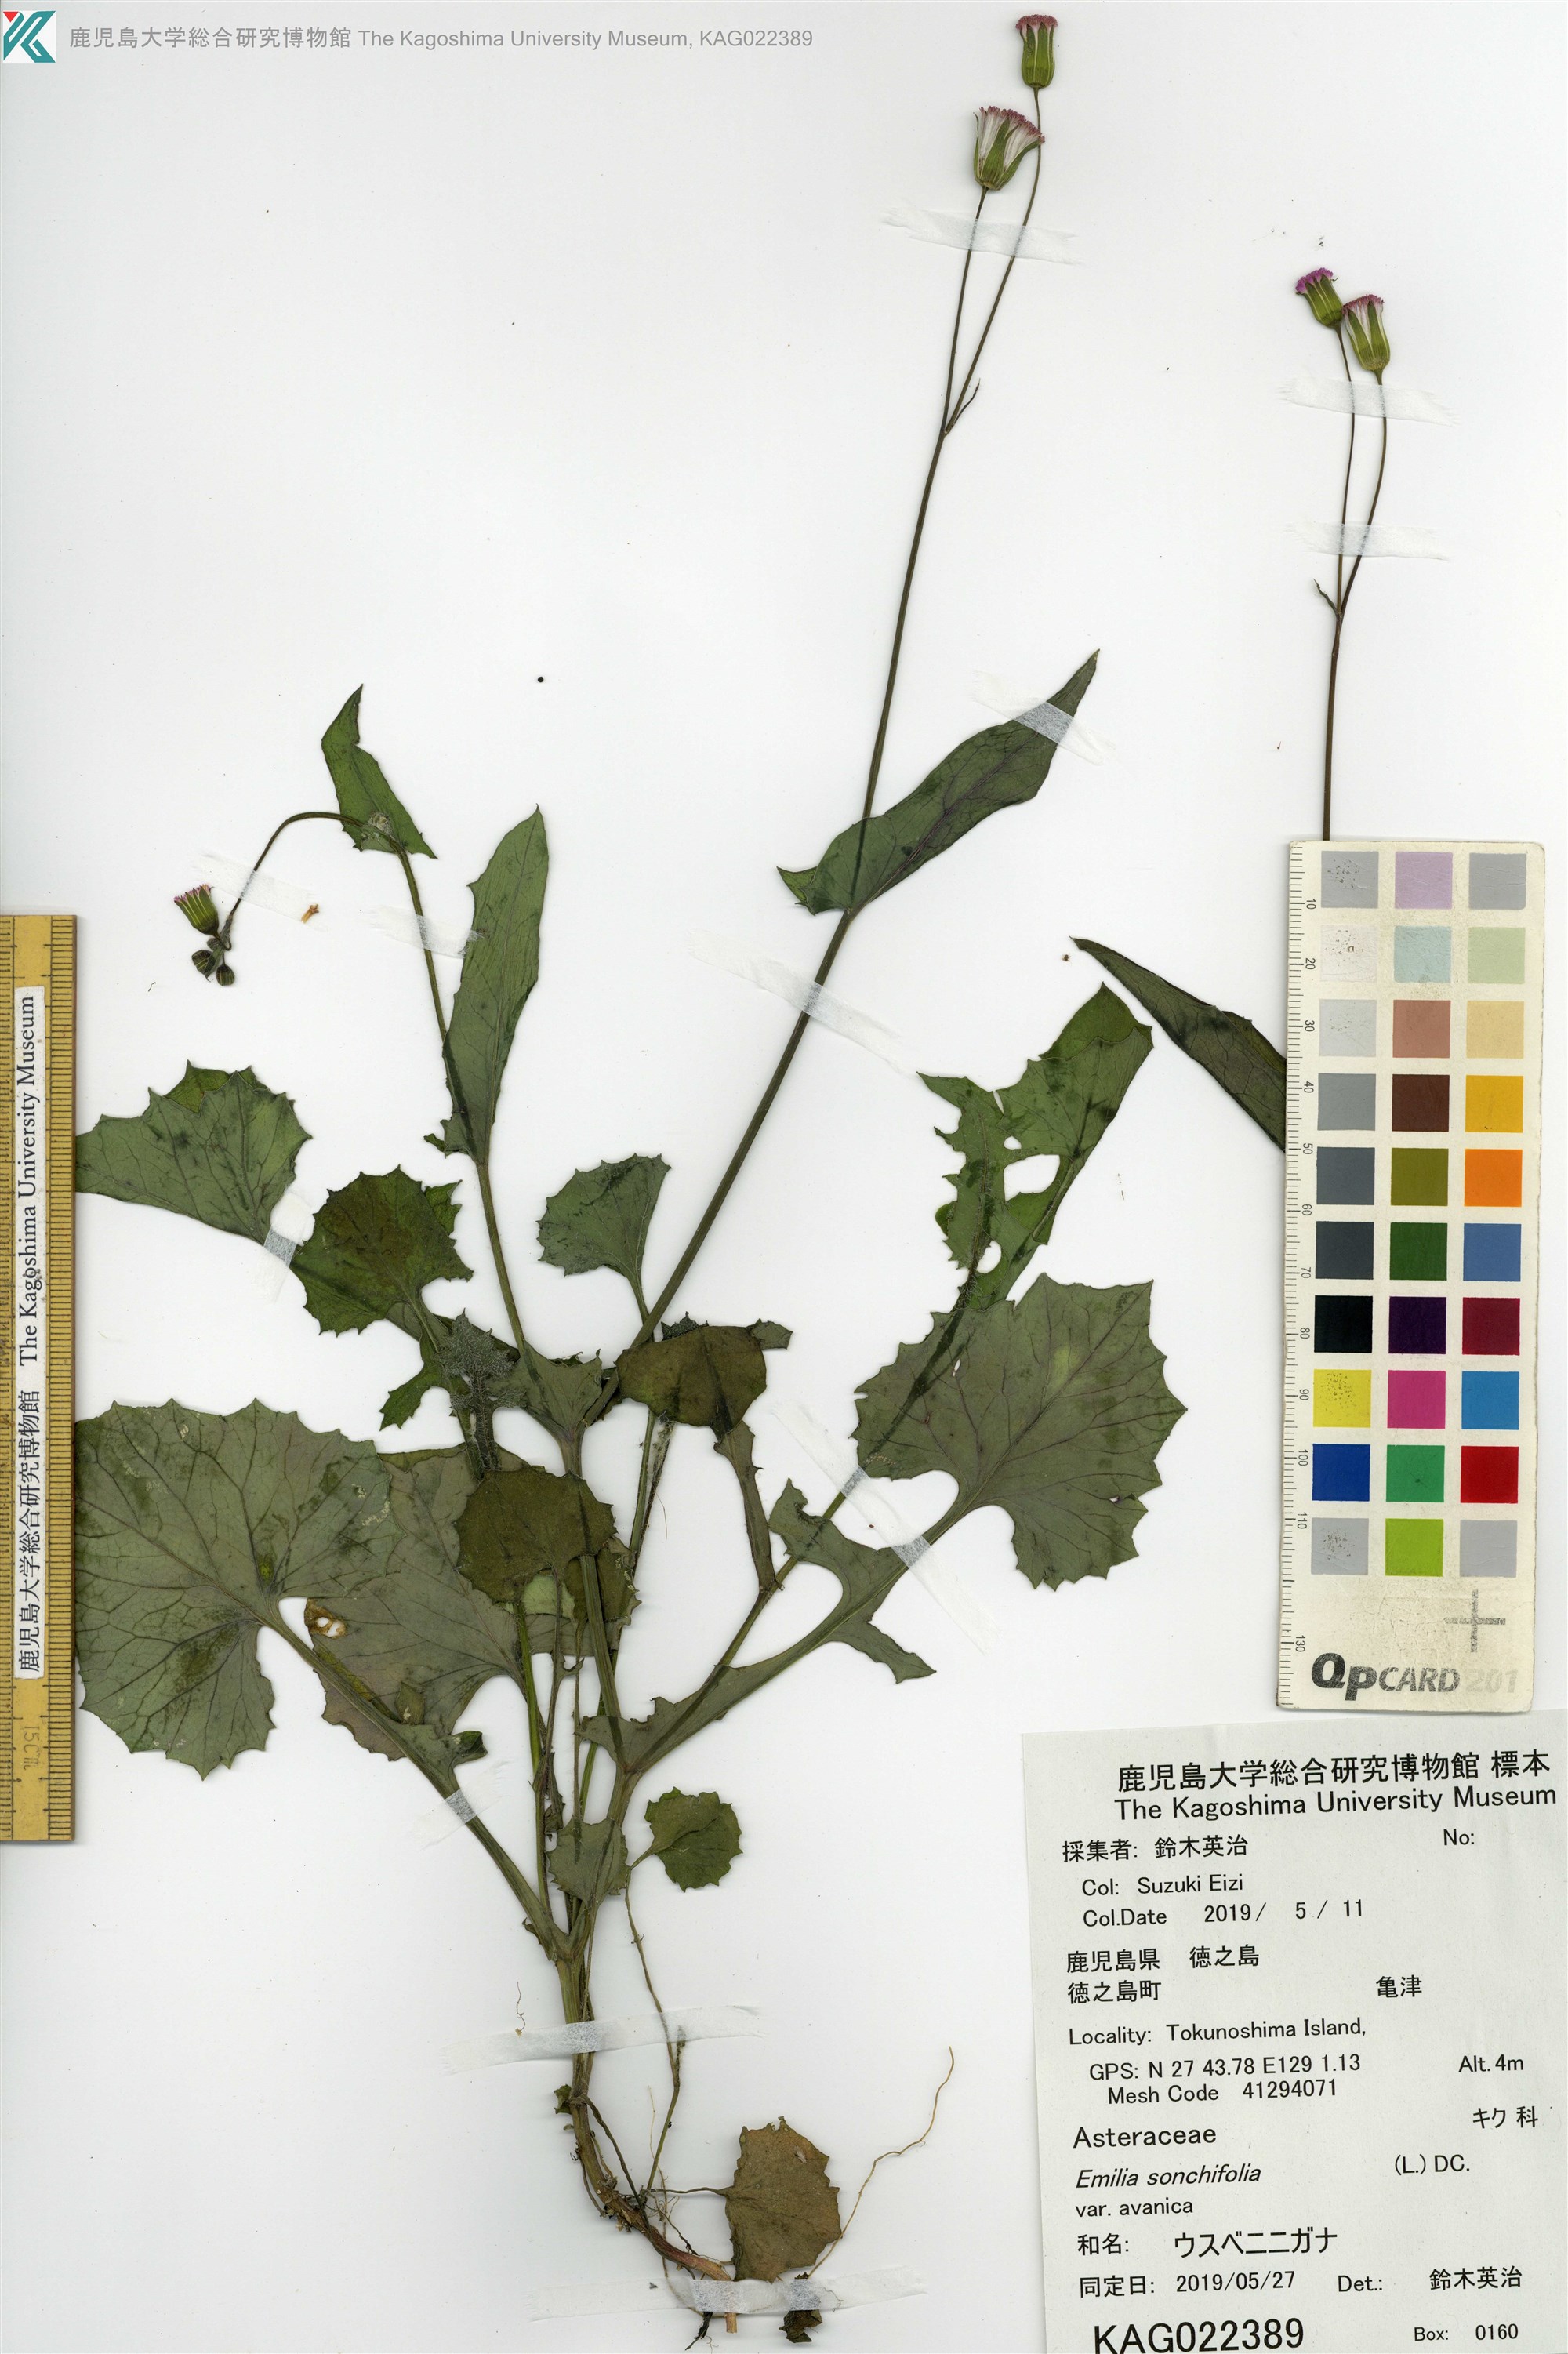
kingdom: Plantae
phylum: Tracheophyta
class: Magnoliopsida
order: Asterales
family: Asteraceae
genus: Emilia
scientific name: Emilia sonchifolia
